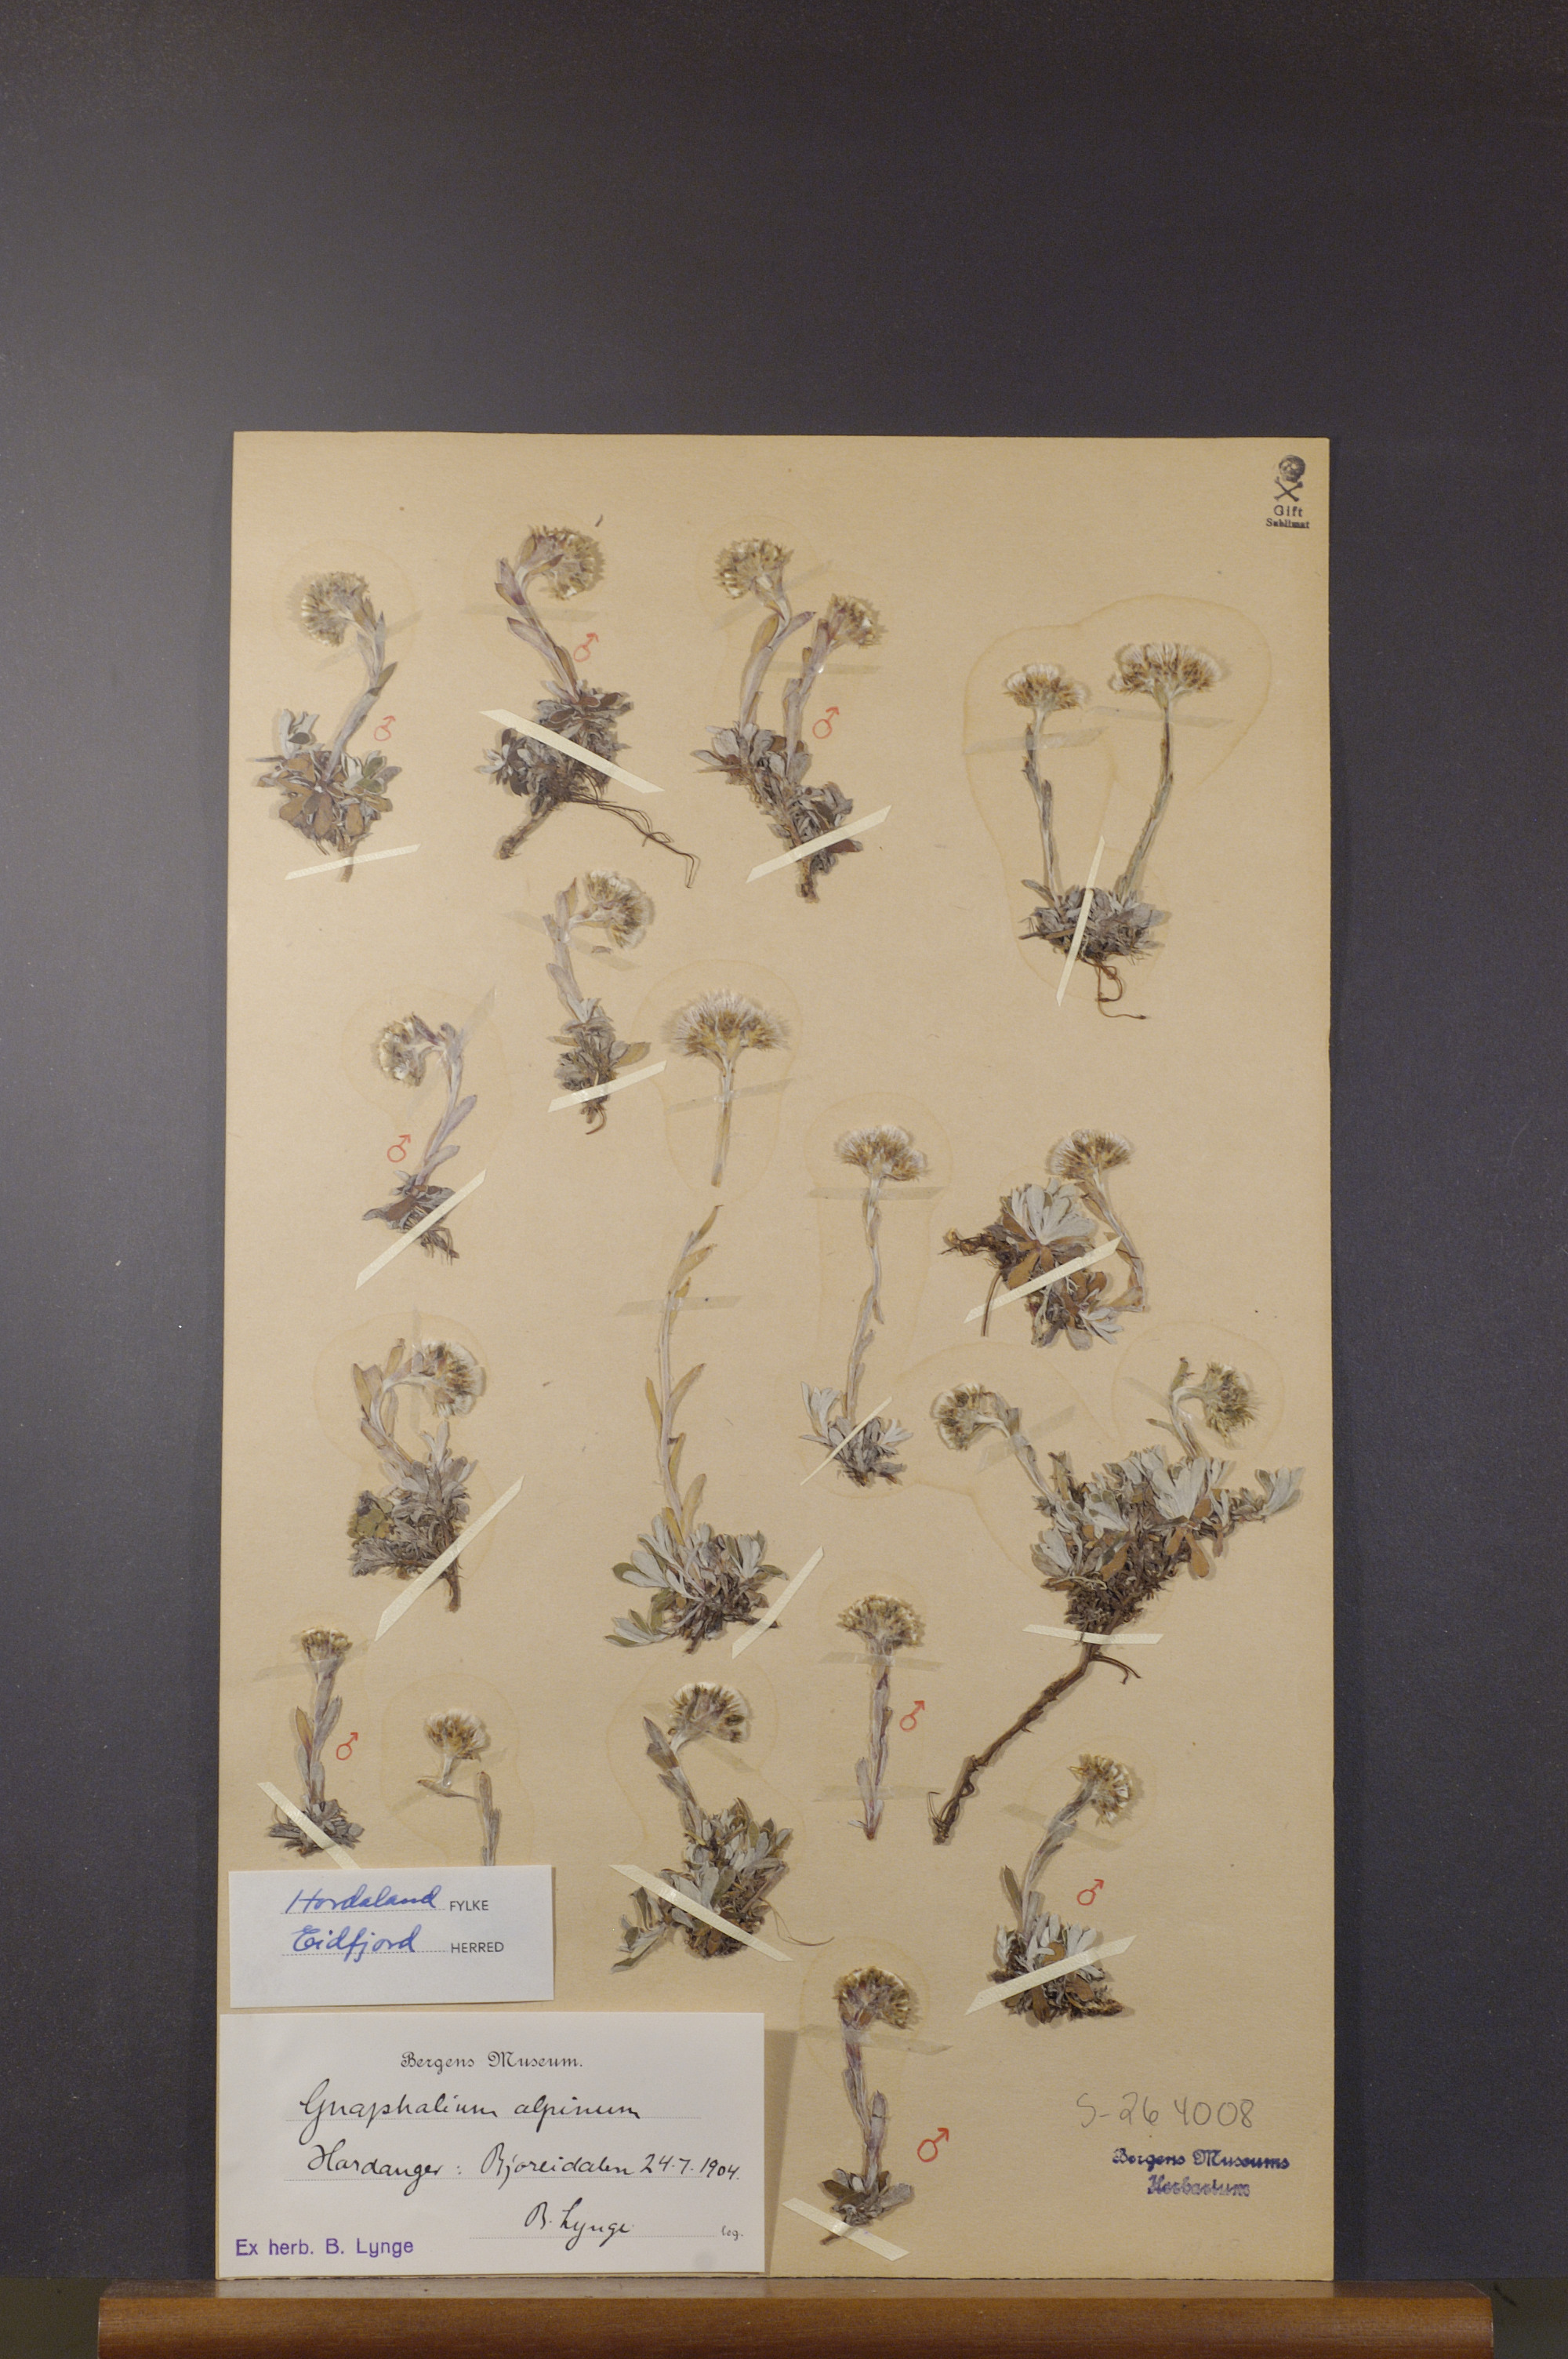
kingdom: Plantae
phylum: Tracheophyta
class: Magnoliopsida
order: Asterales
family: Asteraceae
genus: Antennaria
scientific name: Antennaria alpina
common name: Alpine pussytoes
